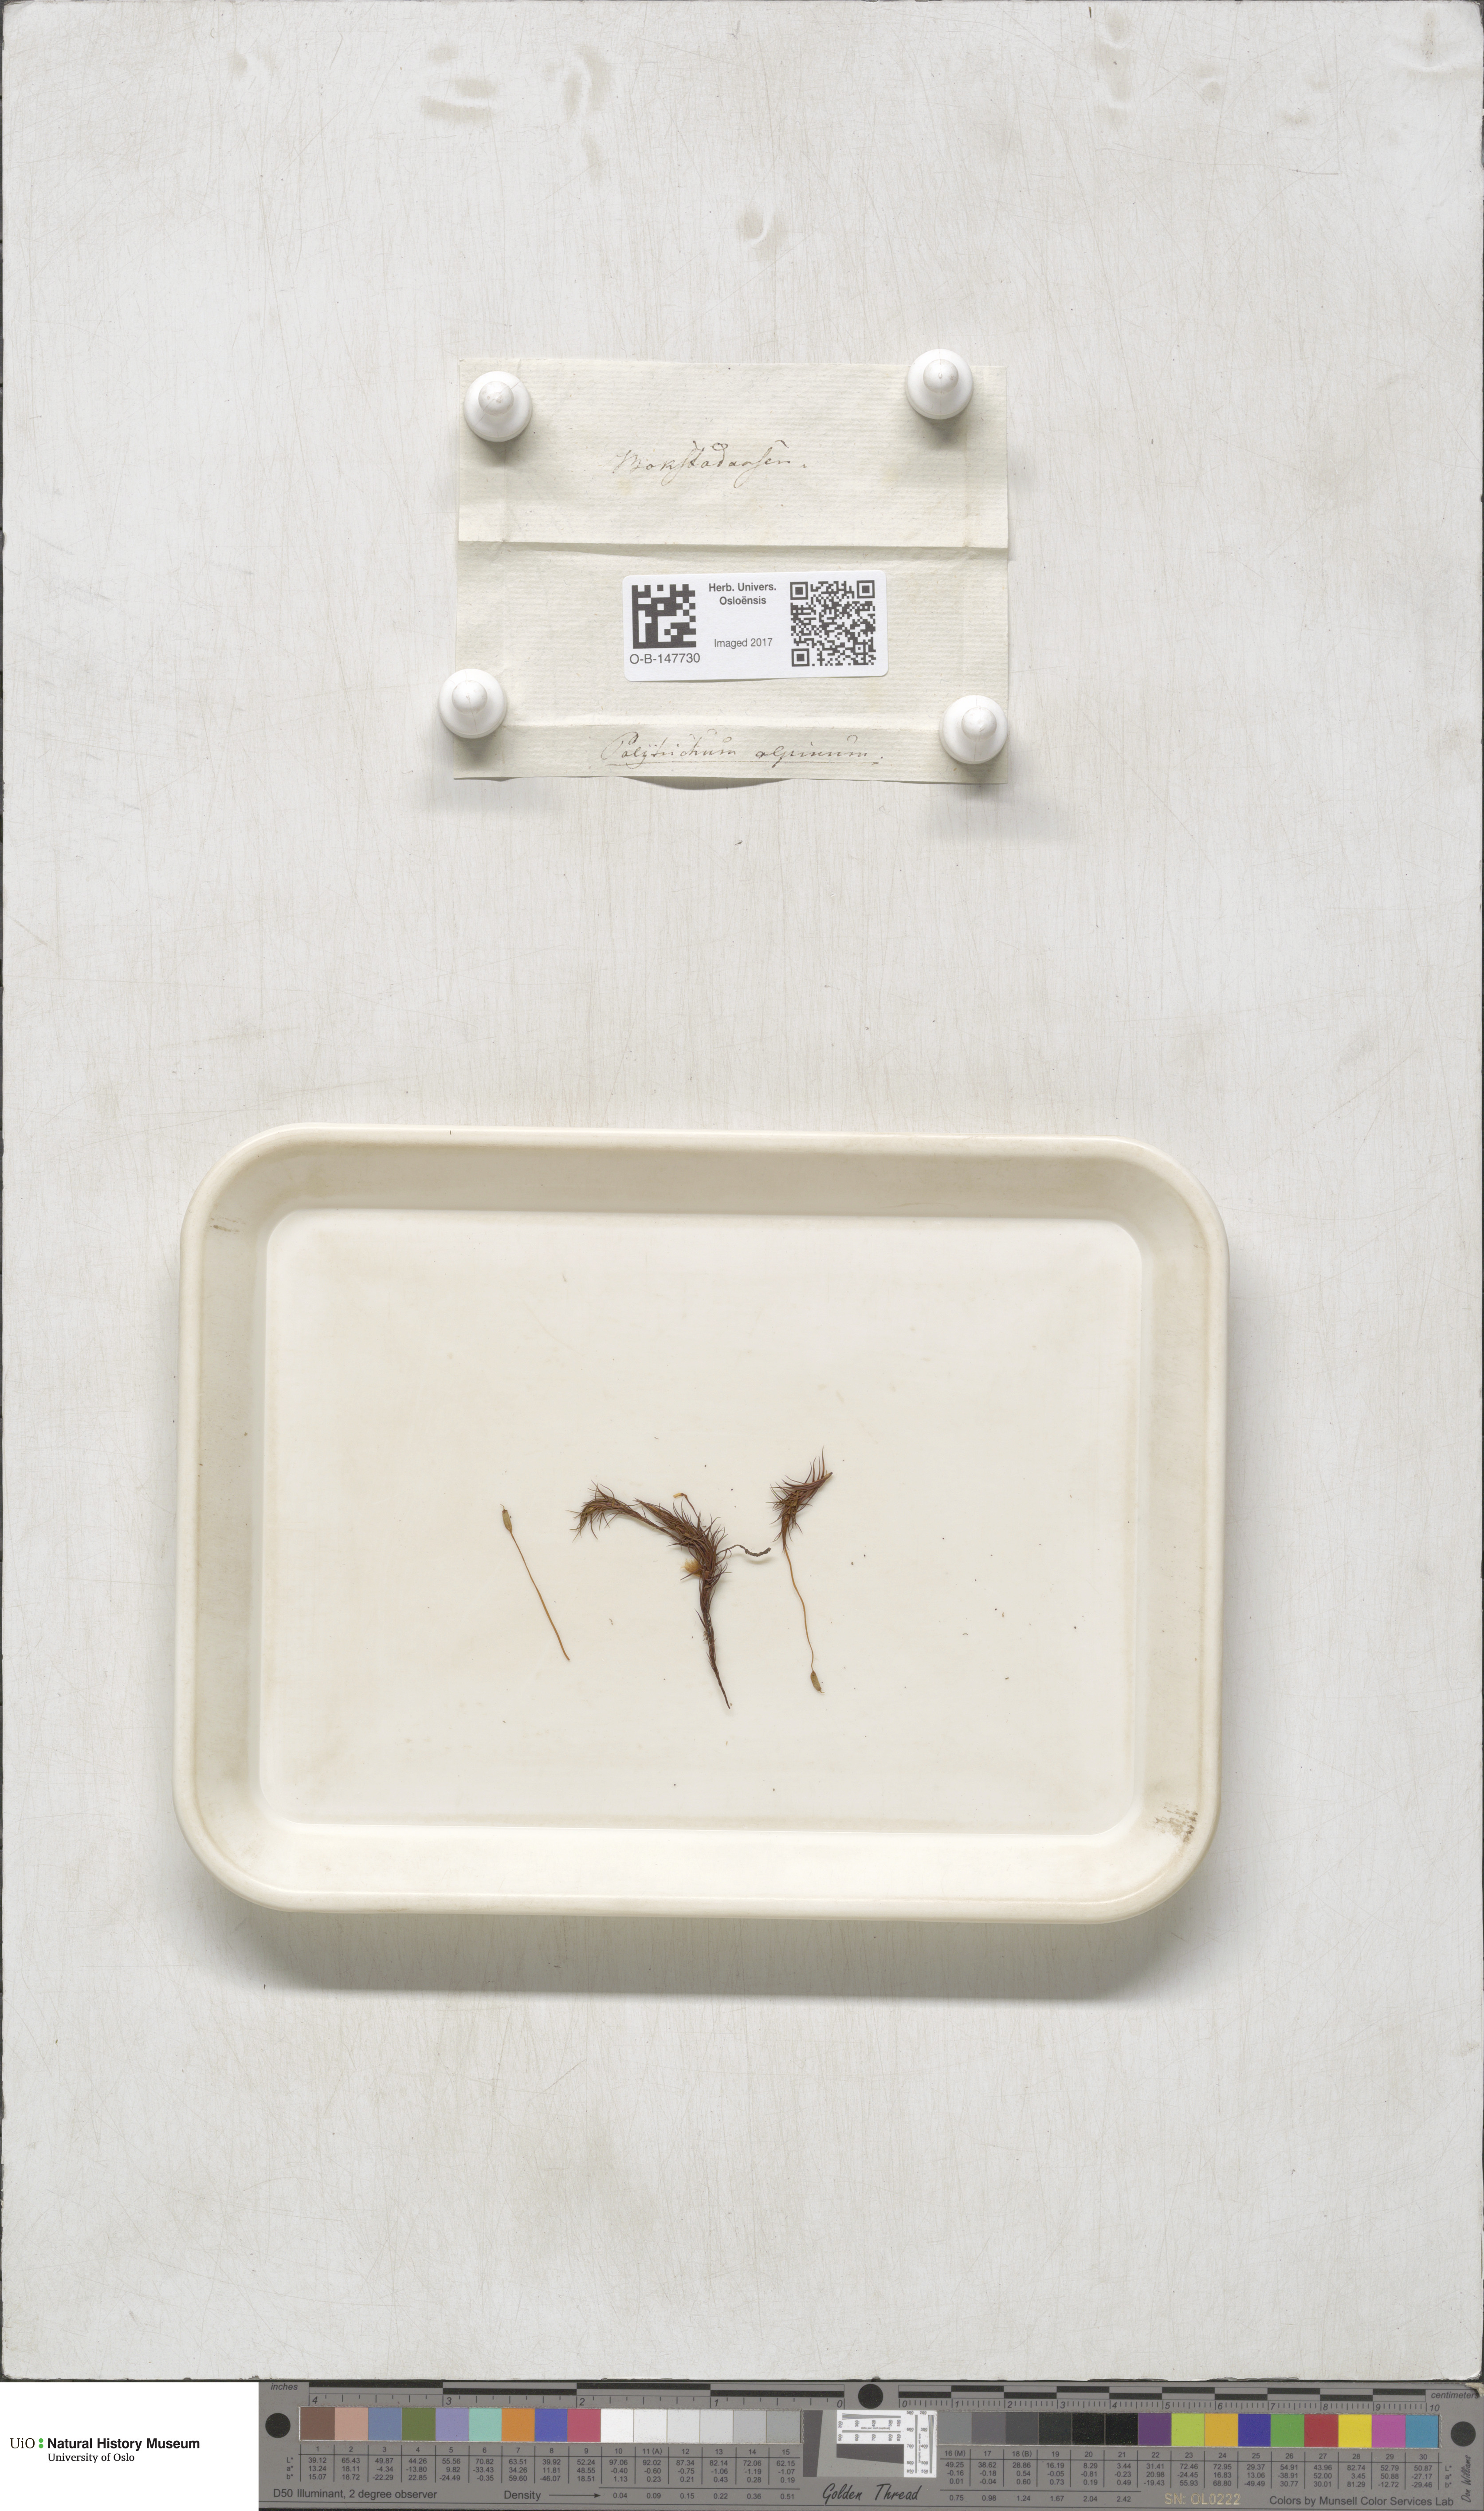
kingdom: Plantae
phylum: Bryophyta
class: Polytrichopsida
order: Polytrichales
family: Polytrichaceae
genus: Polytrichastrum
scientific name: Polytrichastrum alpinum
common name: Alpine haircap
